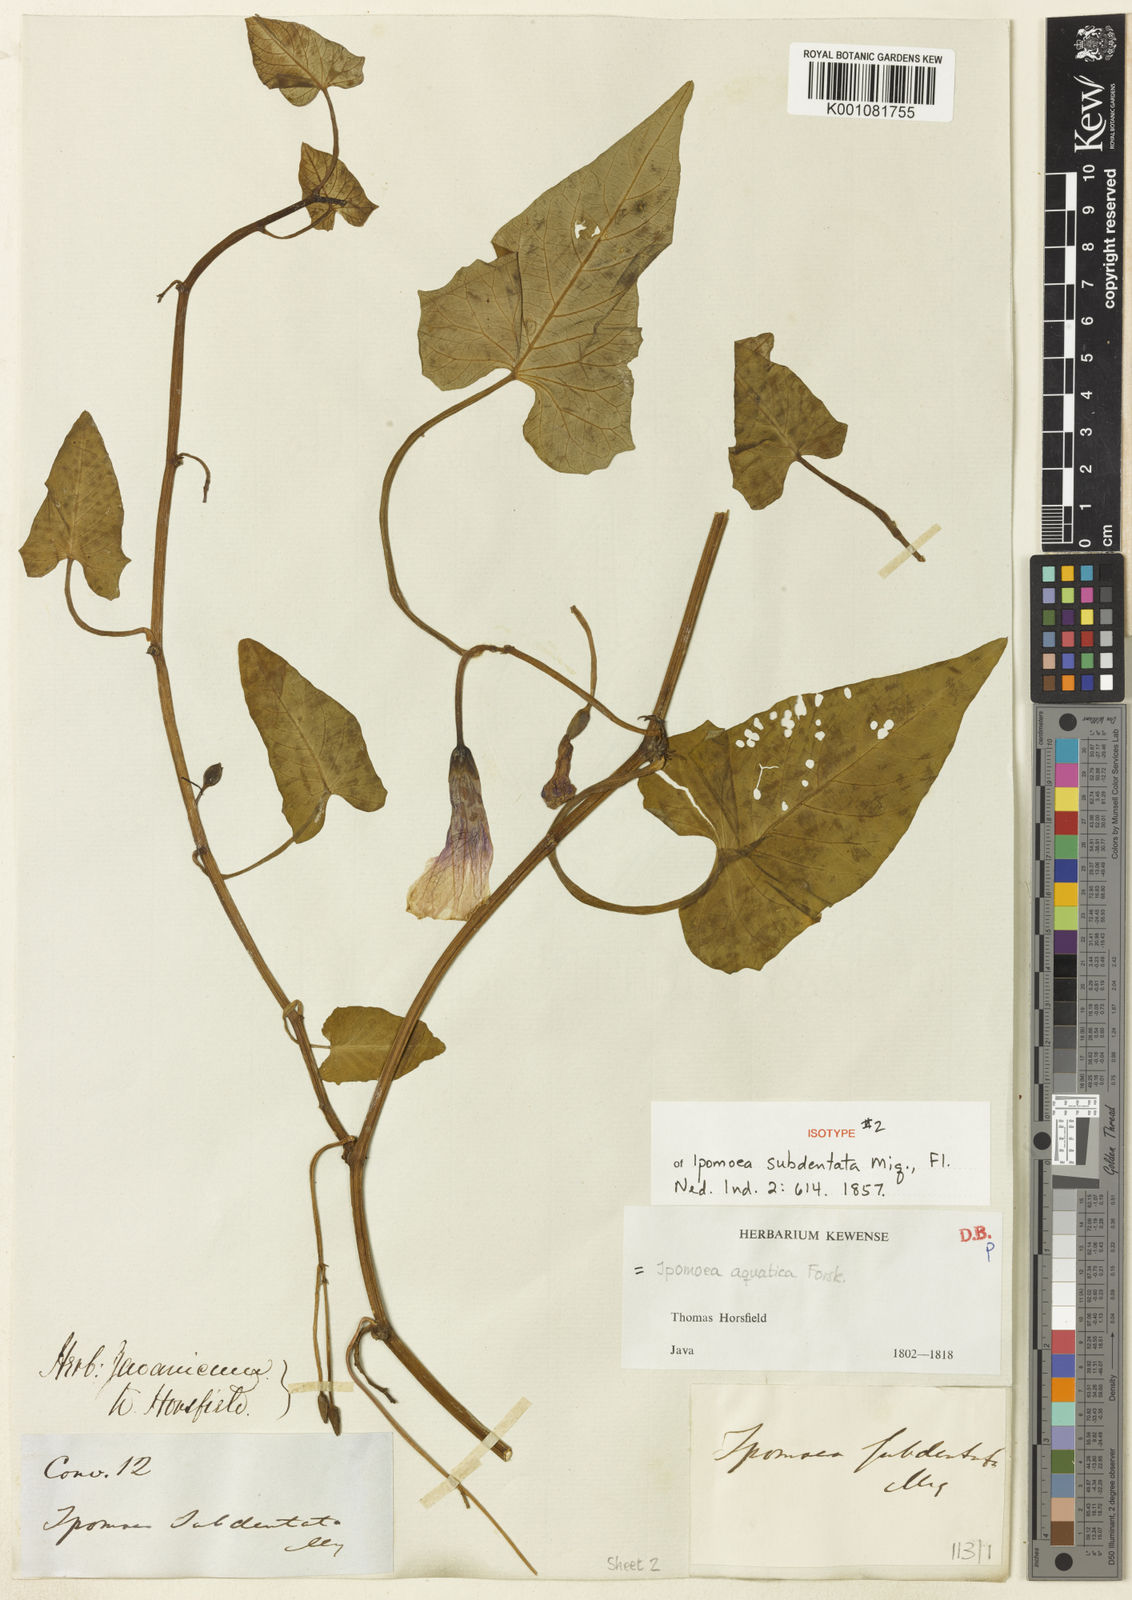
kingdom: Plantae
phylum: Tracheophyta
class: Magnoliopsida
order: Solanales
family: Convolvulaceae
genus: Ipomoea
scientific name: Ipomoea aquatica
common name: Swamp morning-glory
